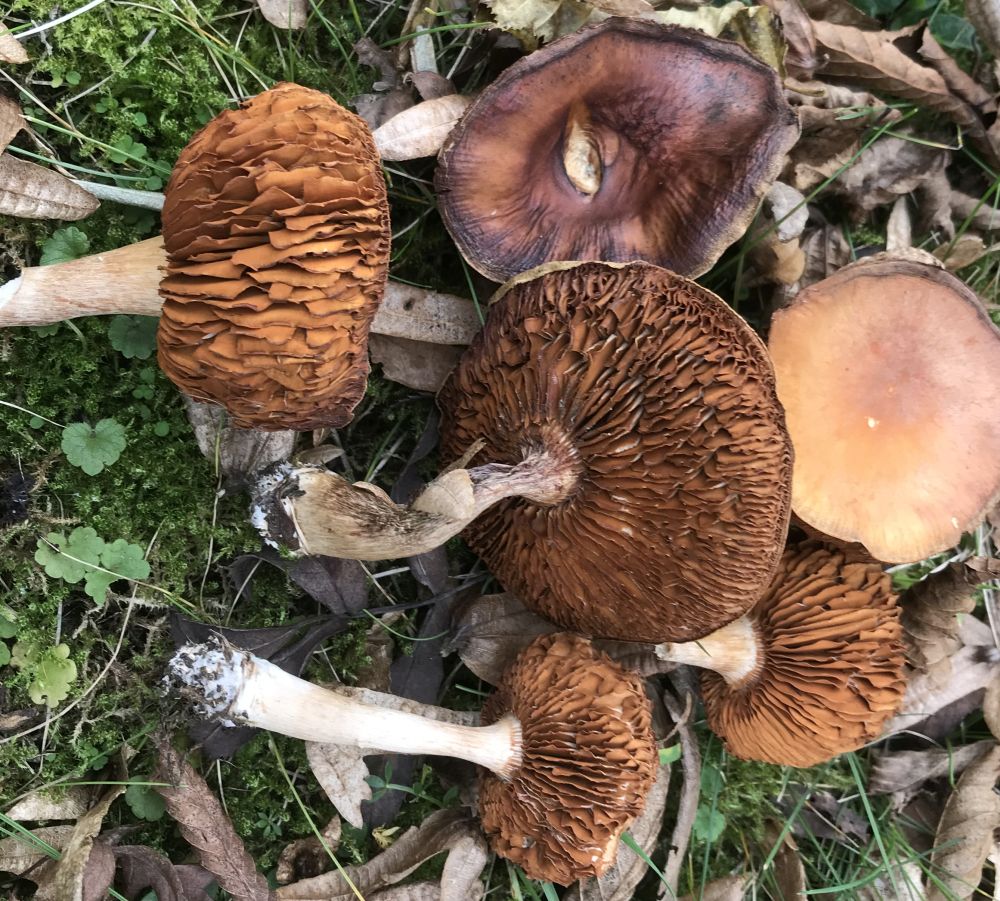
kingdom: Fungi
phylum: Basidiomycota
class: Agaricomycetes
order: Agaricales
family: Cortinariaceae
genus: Cortinarius
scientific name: Cortinarius
